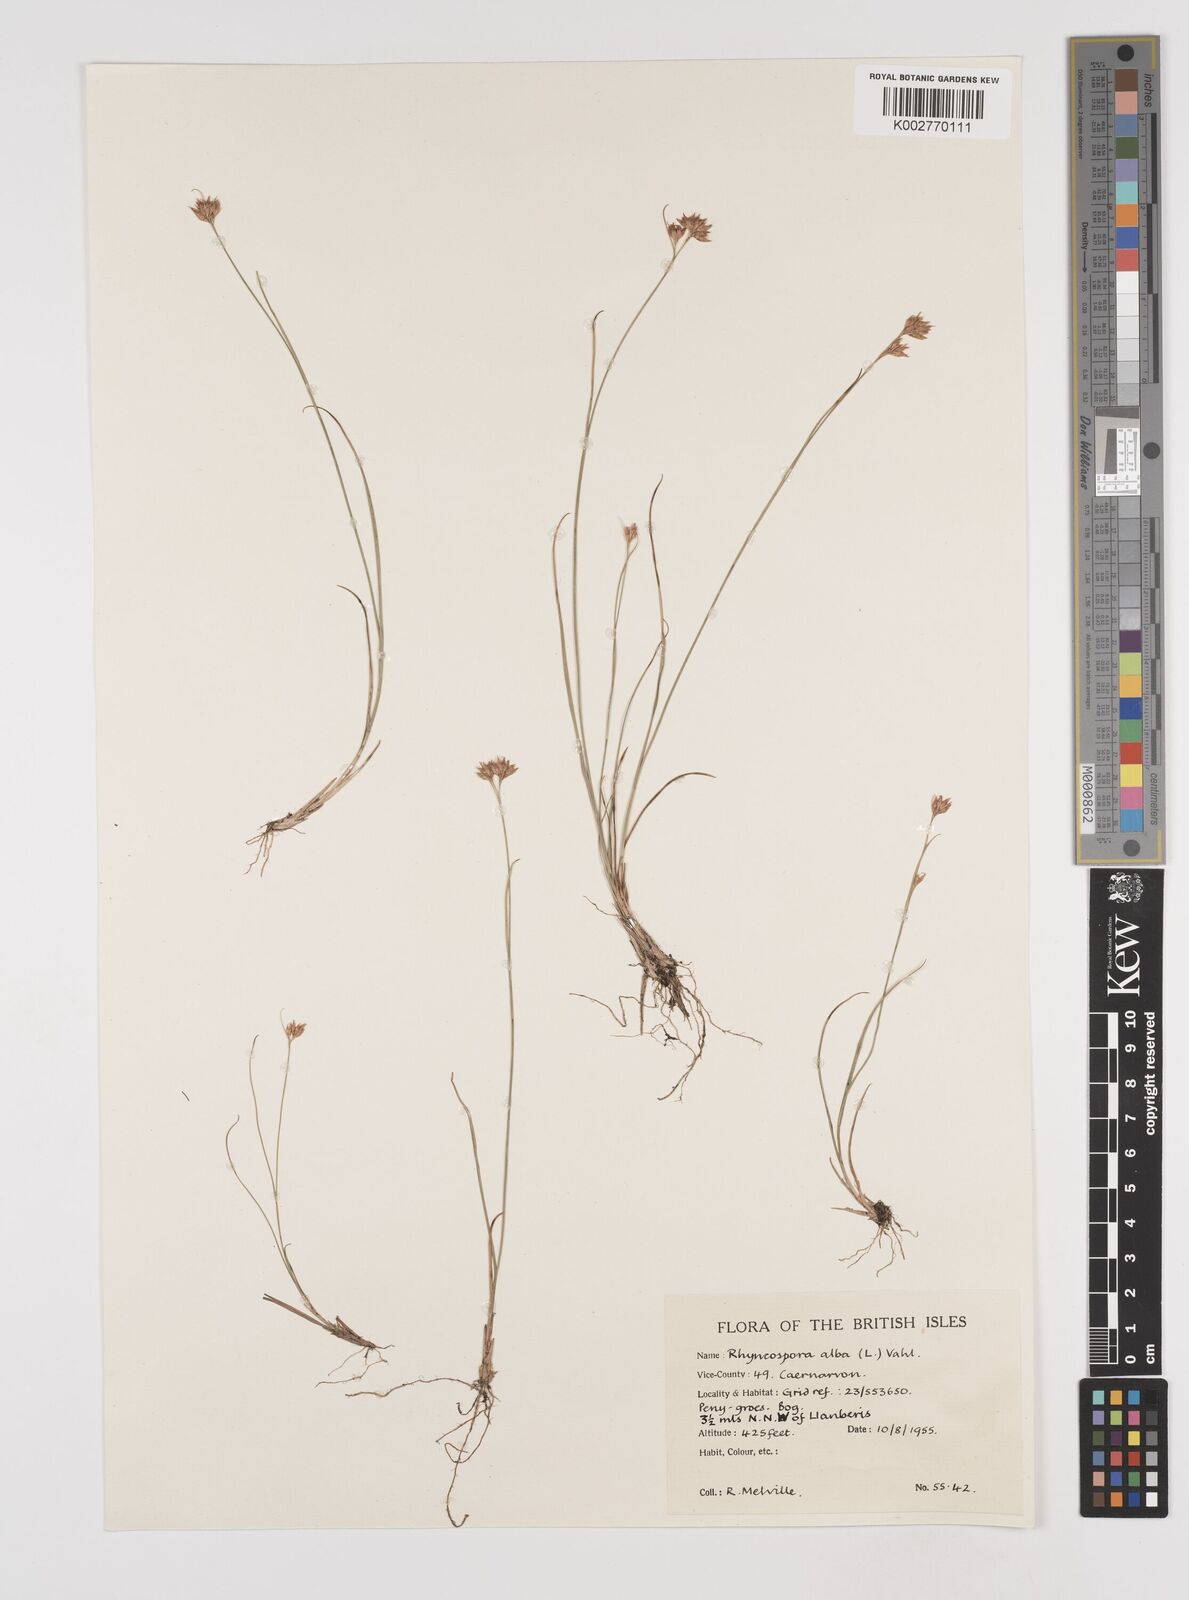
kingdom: Plantae
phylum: Tracheophyta
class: Liliopsida
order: Poales
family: Cyperaceae
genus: Rhynchospora
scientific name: Rhynchospora alba
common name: White beak-sedge
